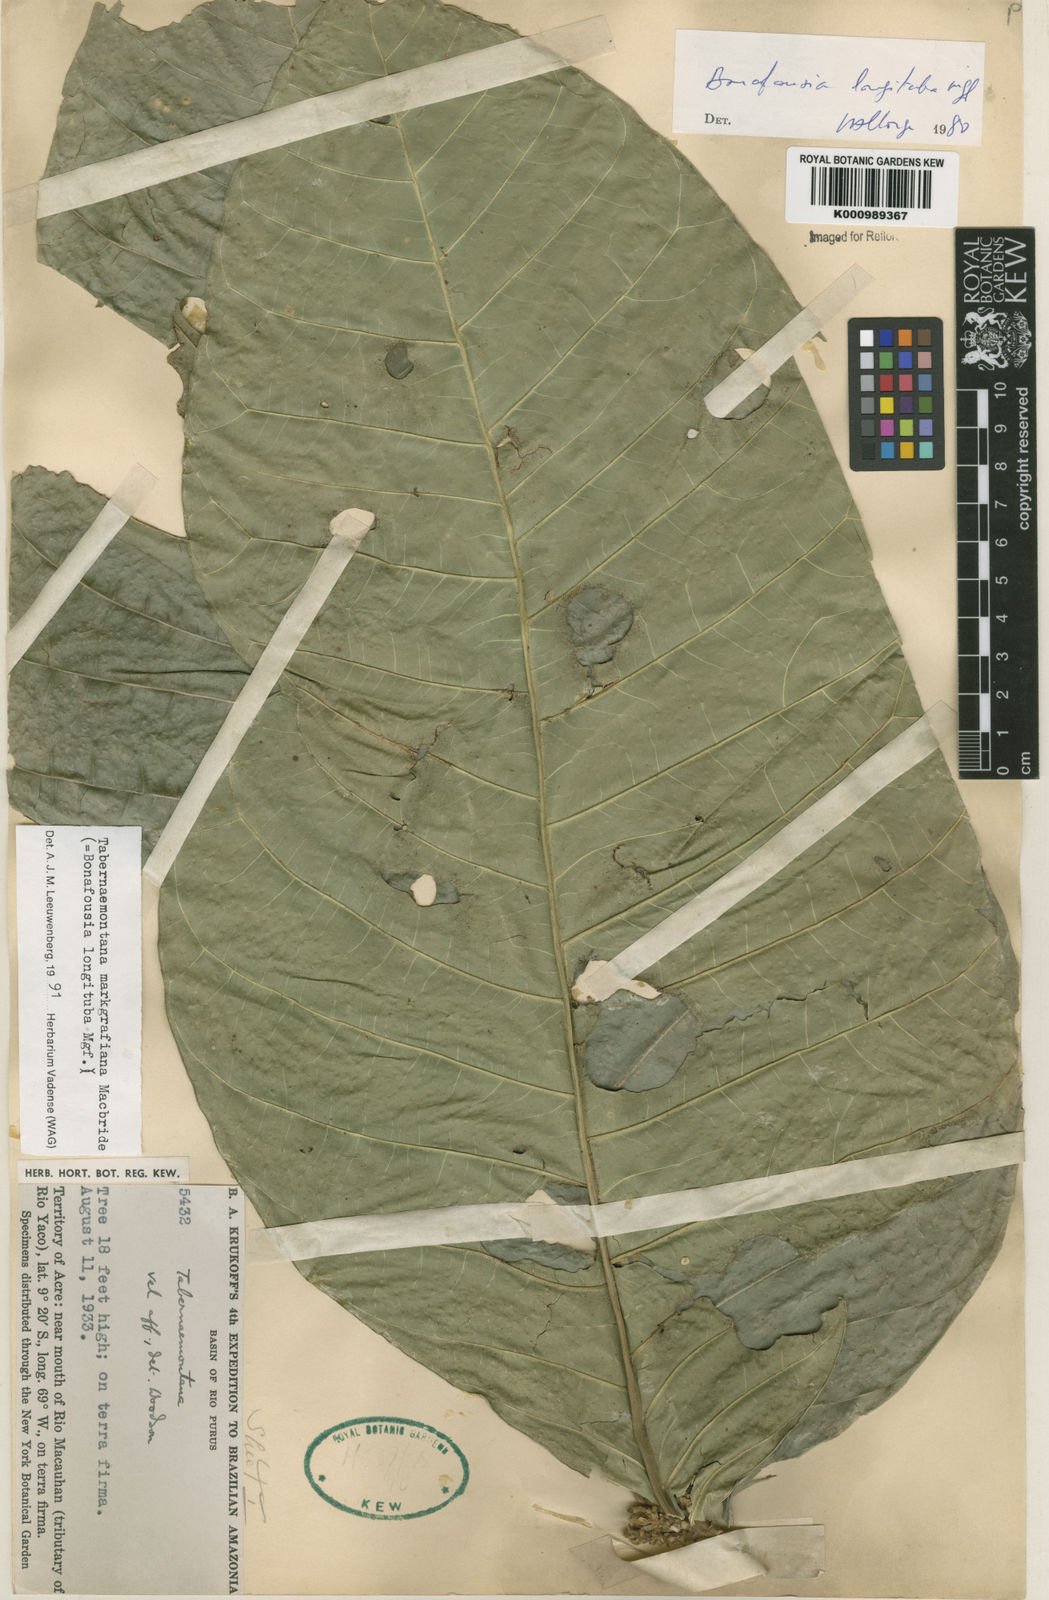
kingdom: Plantae
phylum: Tracheophyta
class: Magnoliopsida
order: Gentianales
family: Apocynaceae
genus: Tabernaemontana
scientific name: Tabernaemontana markgrafiana
